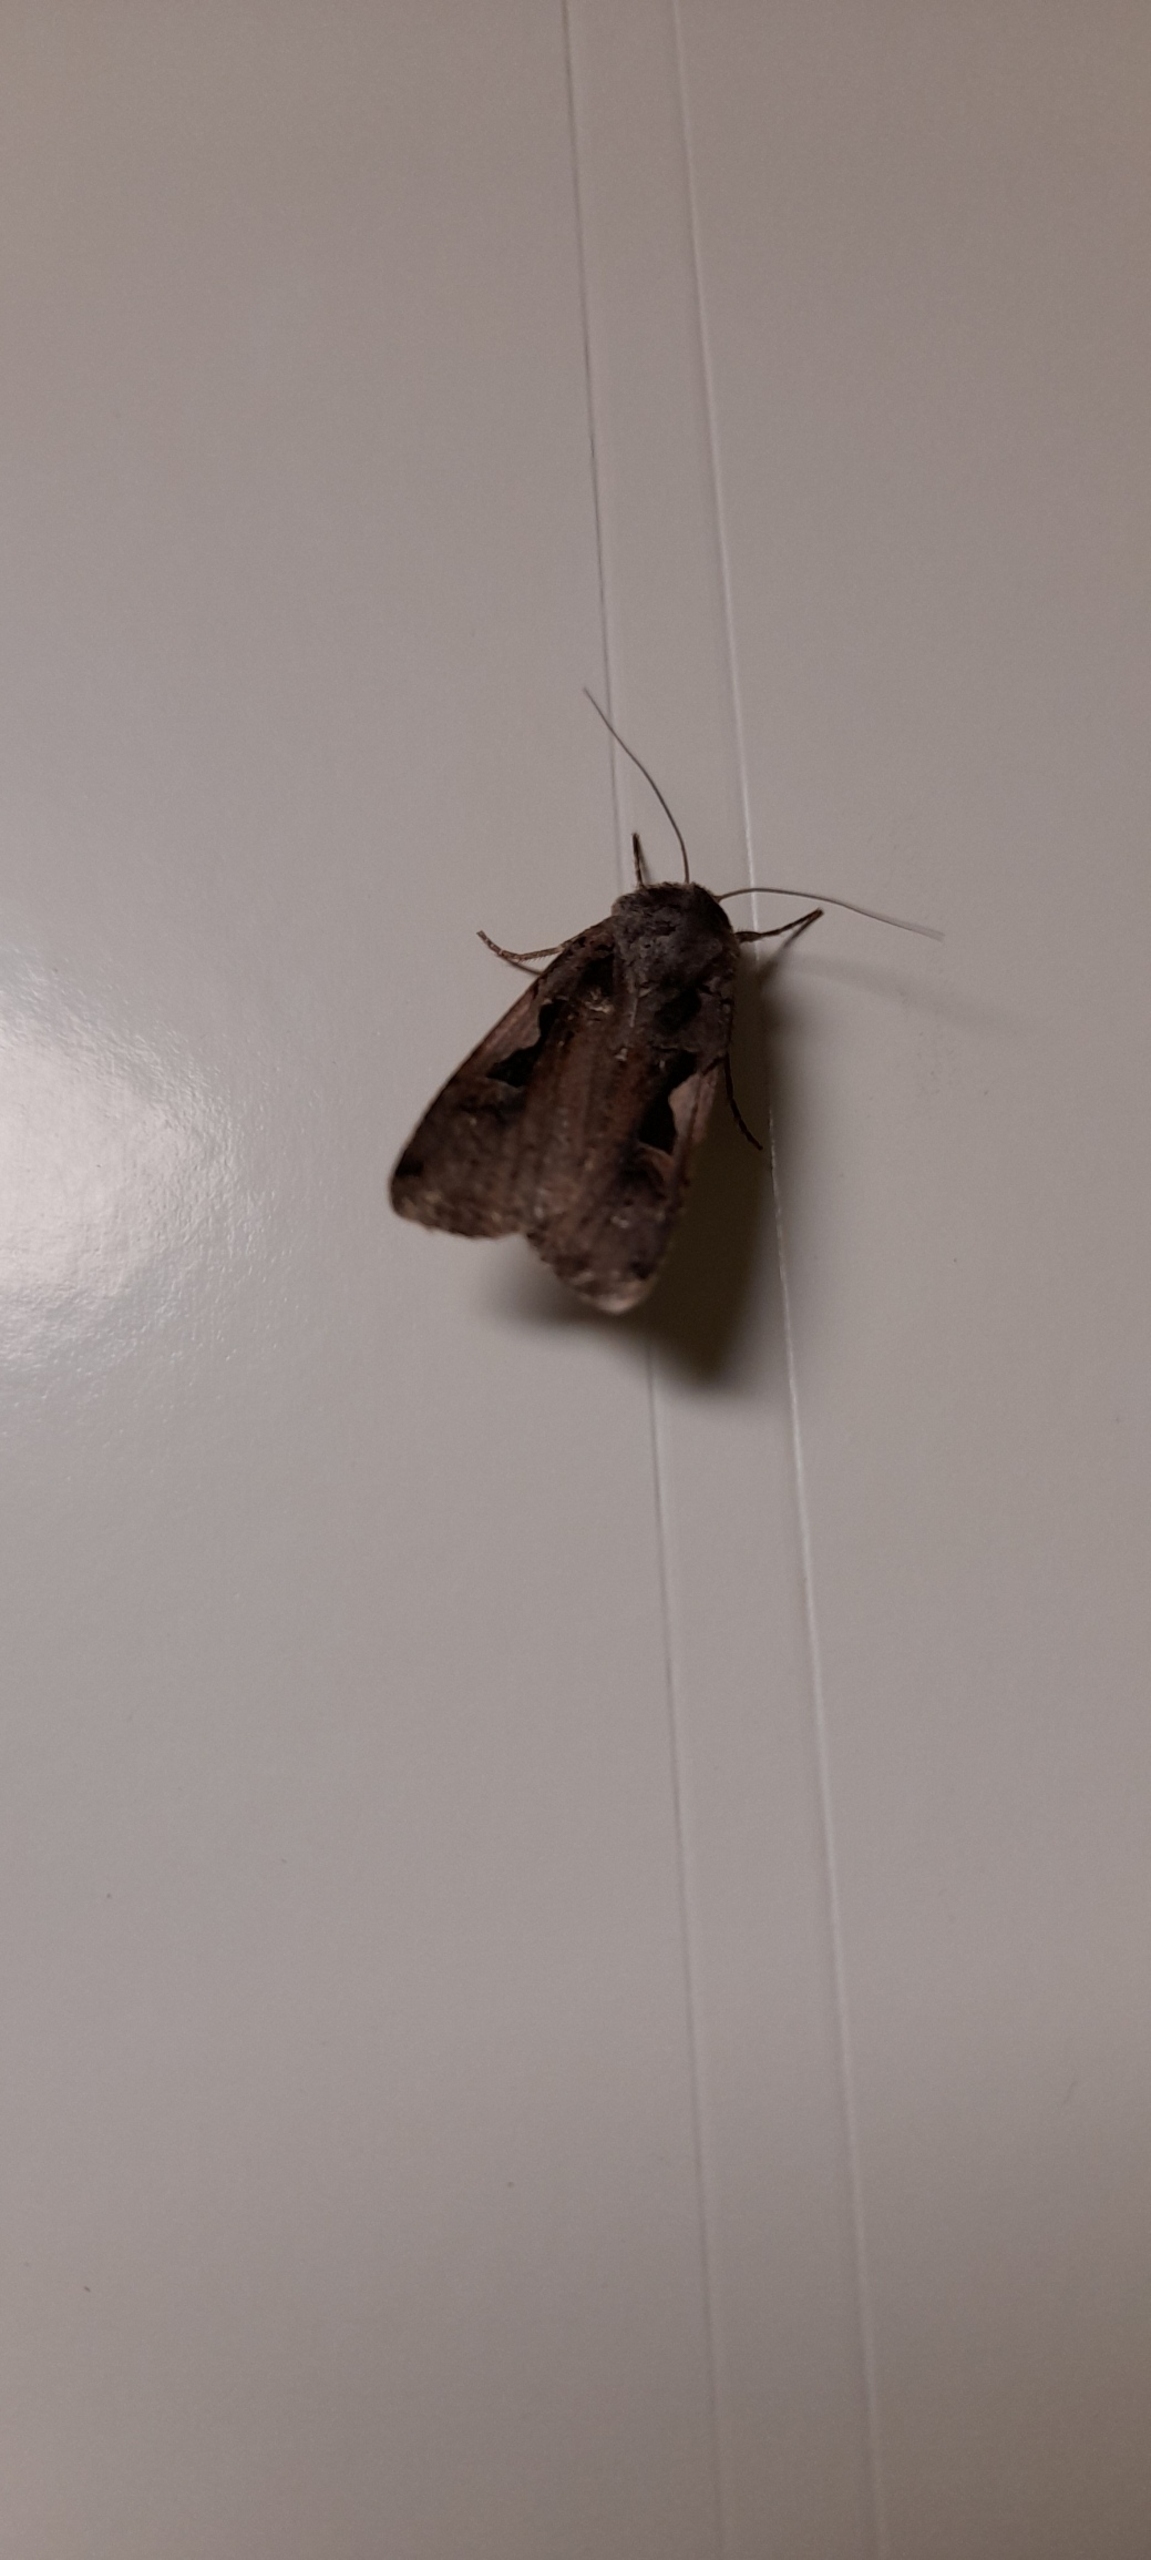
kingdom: Animalia
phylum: Arthropoda
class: Insecta
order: Lepidoptera
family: Noctuidae
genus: Xestia
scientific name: Xestia c-nigrum
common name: Det sorte c
